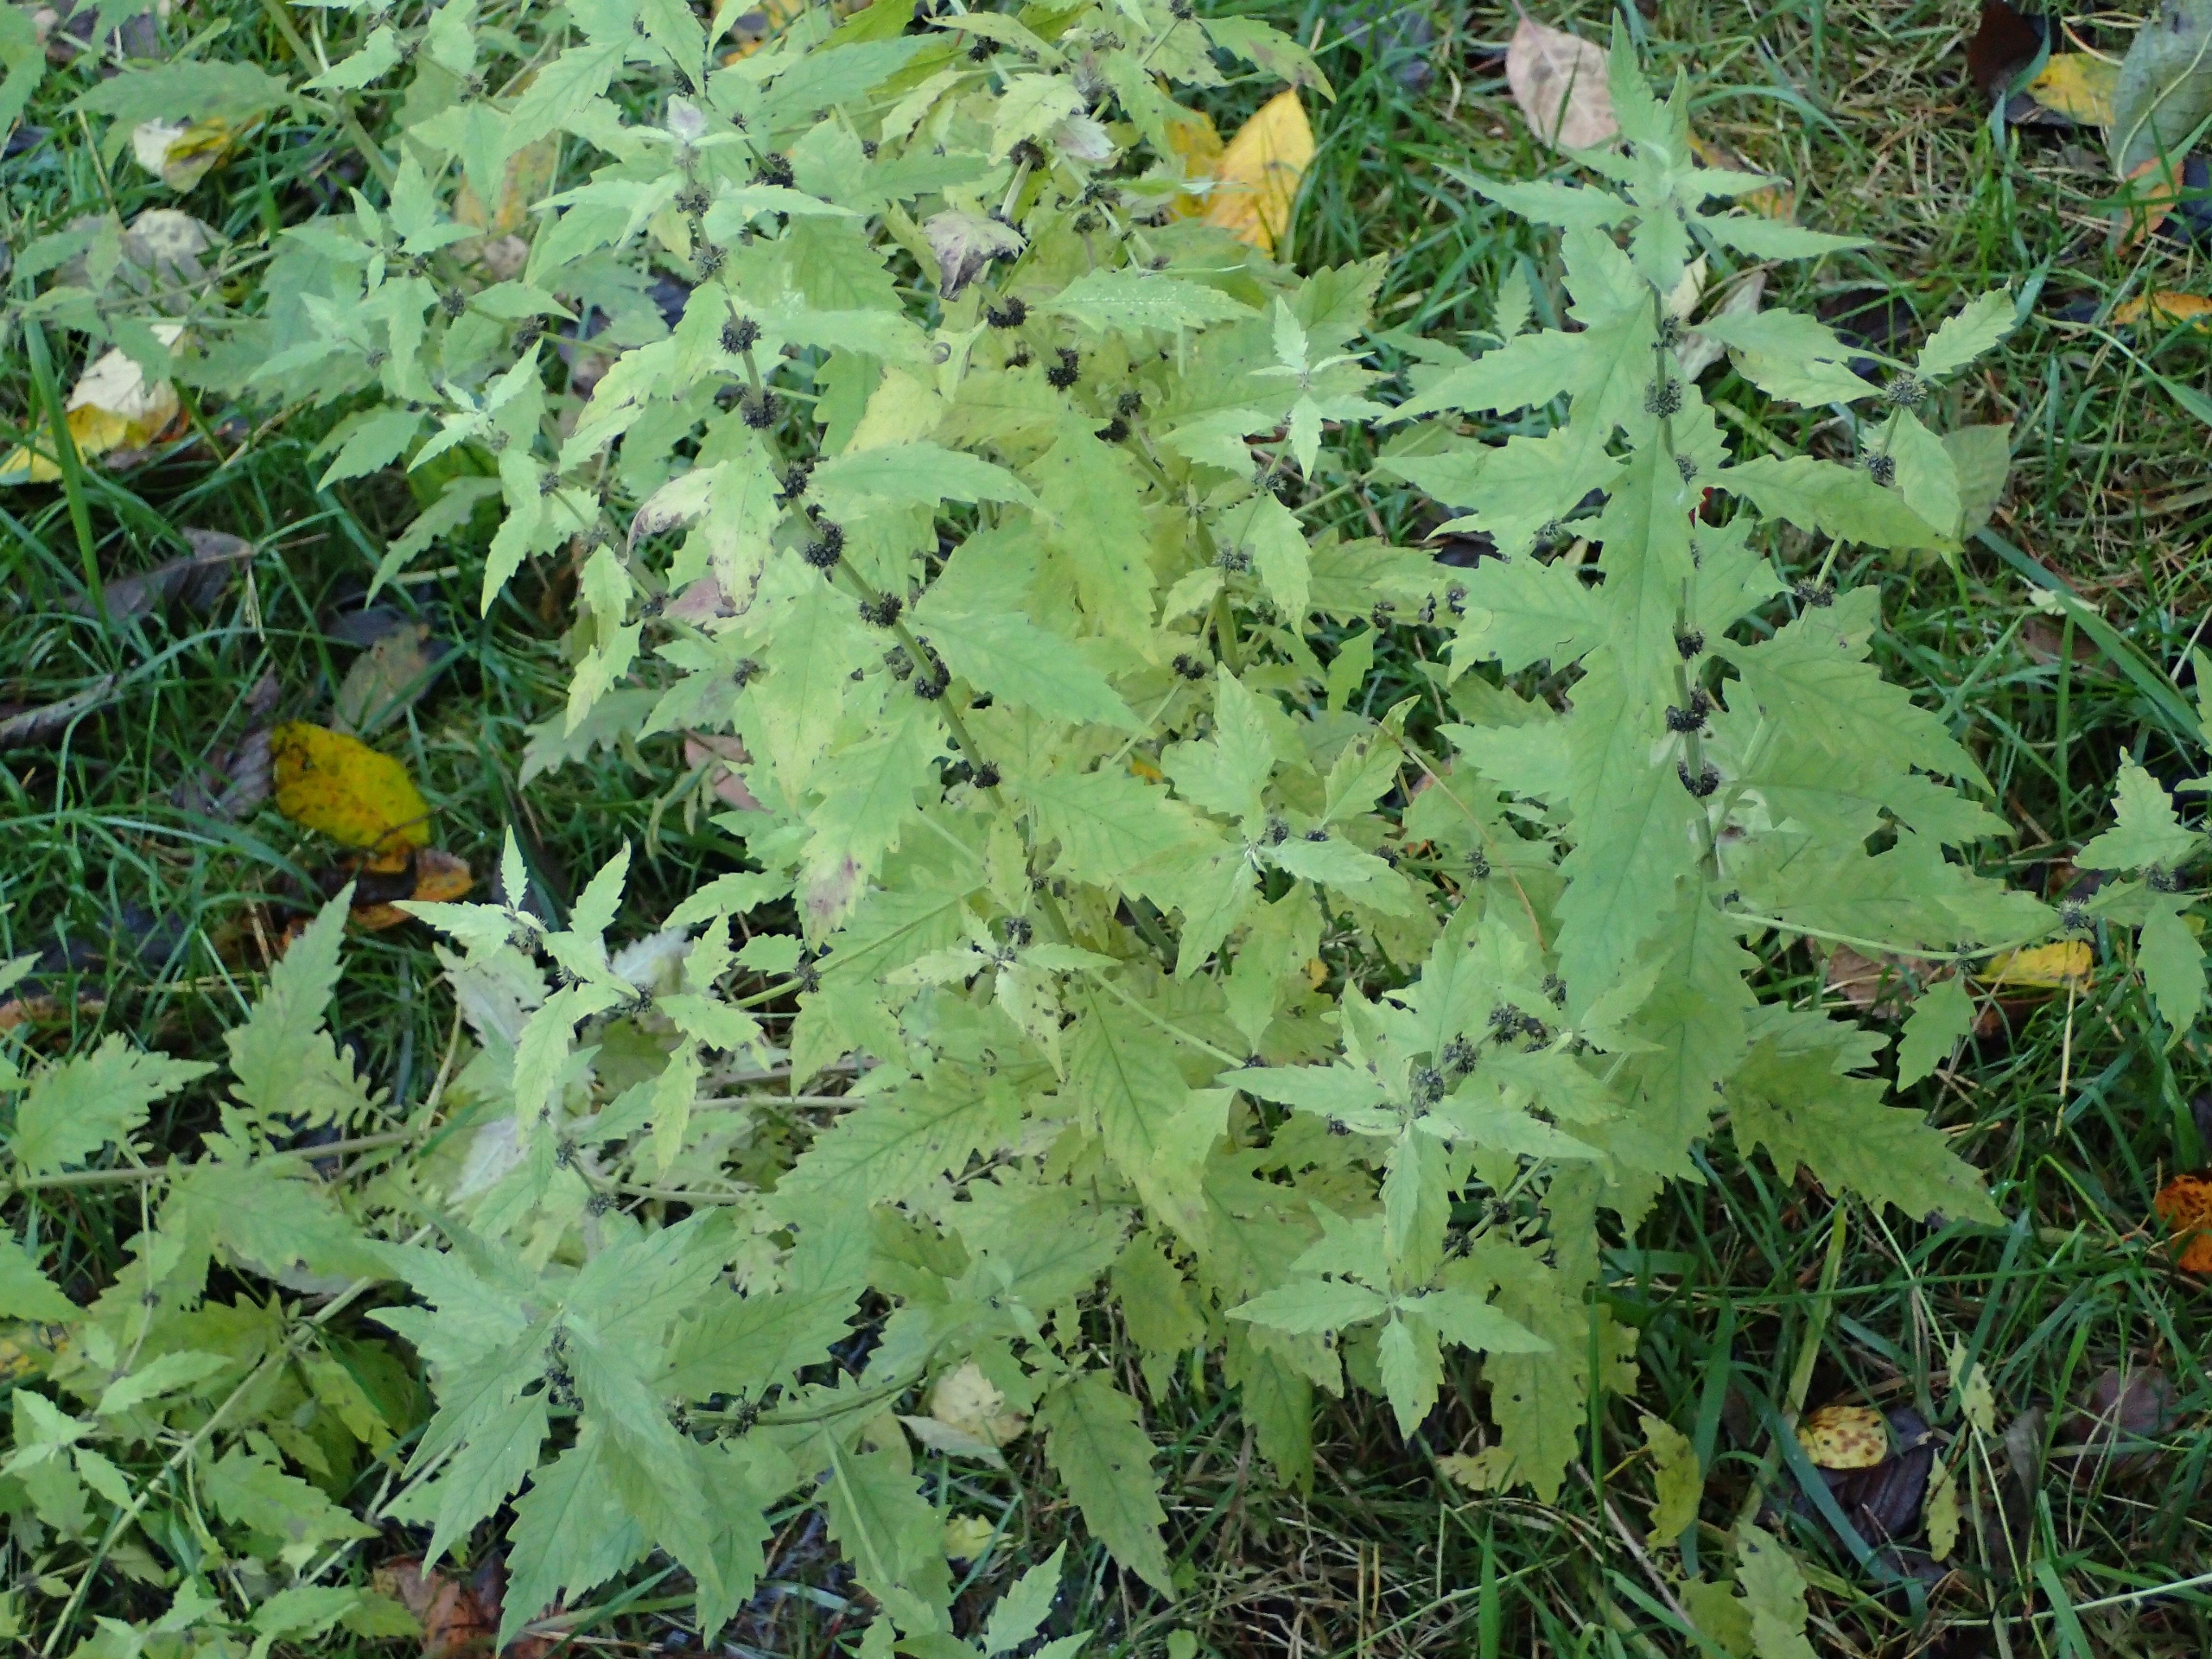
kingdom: Plantae
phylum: Tracheophyta
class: Magnoliopsida
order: Lamiales
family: Lamiaceae
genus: Lycopus
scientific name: Lycopus europaeus
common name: Sværtevæld
